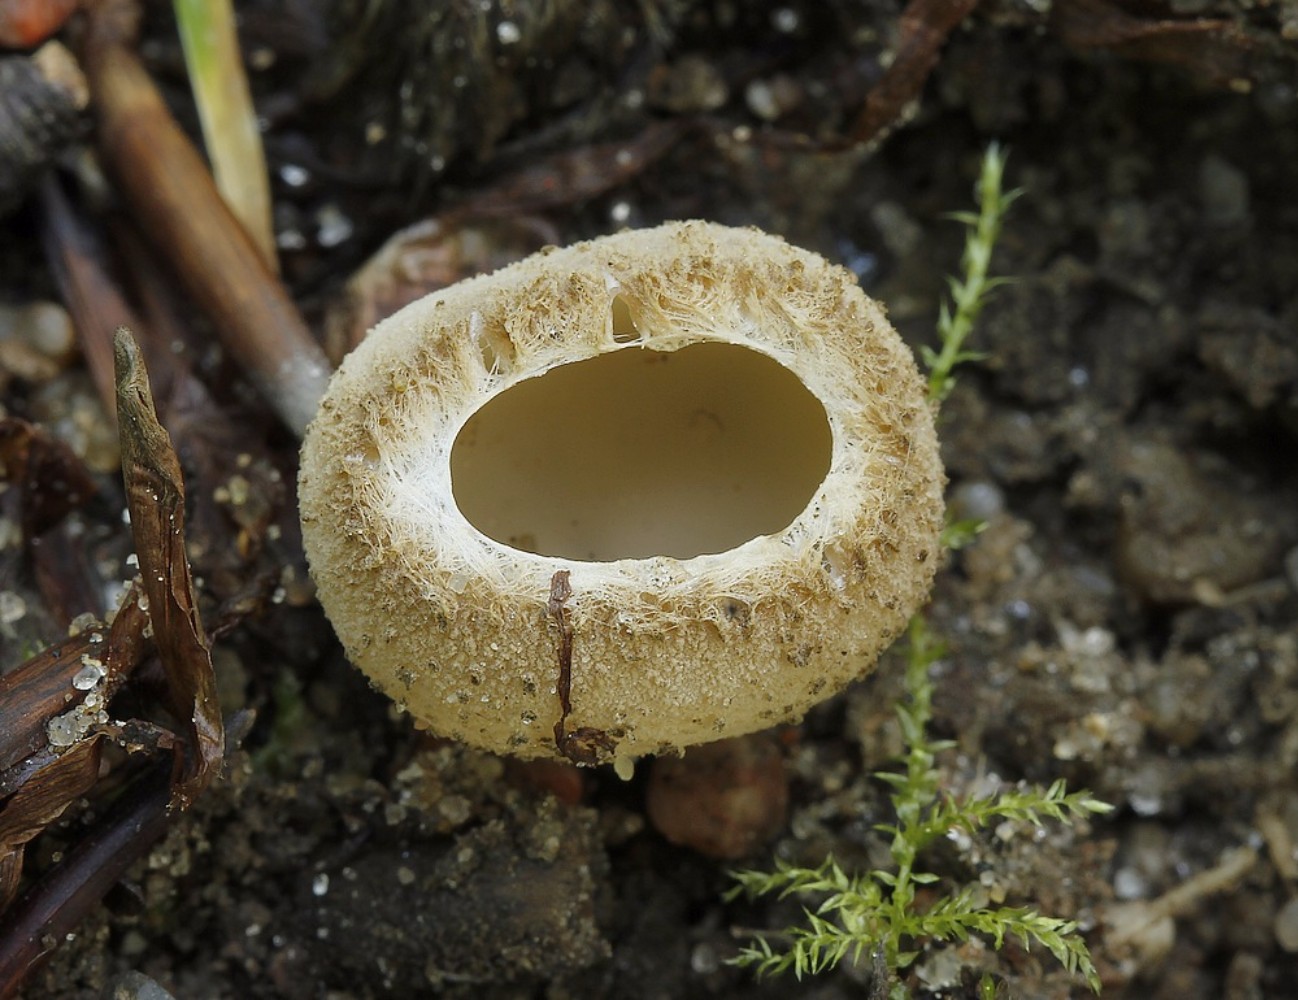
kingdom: Fungi
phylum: Ascomycota
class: Pezizomycetes
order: Pezizales
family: Pyronemataceae
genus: Tarzetta
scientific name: Tarzetta cupularis
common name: gulbrun pokalbæger
